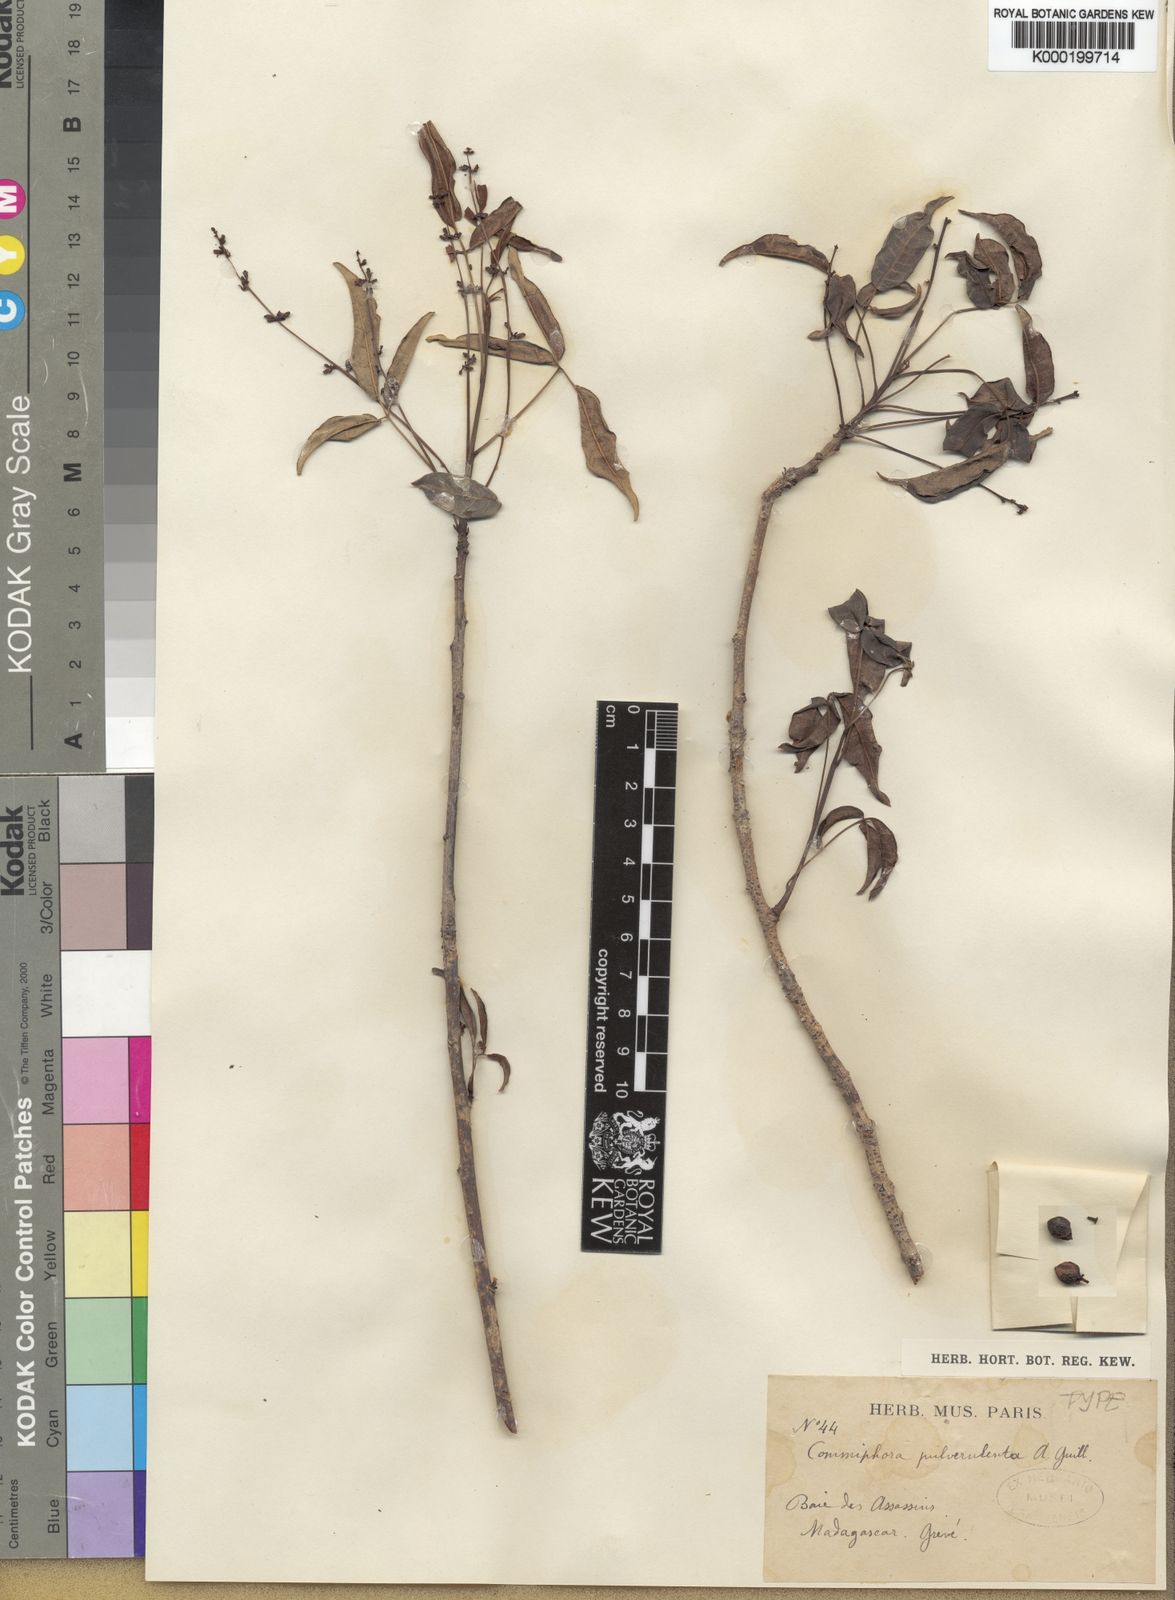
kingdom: Plantae
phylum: Tracheophyta
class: Magnoliopsida
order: Sapindales
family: Burseraceae
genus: Commiphora
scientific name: Commiphora marchandii
